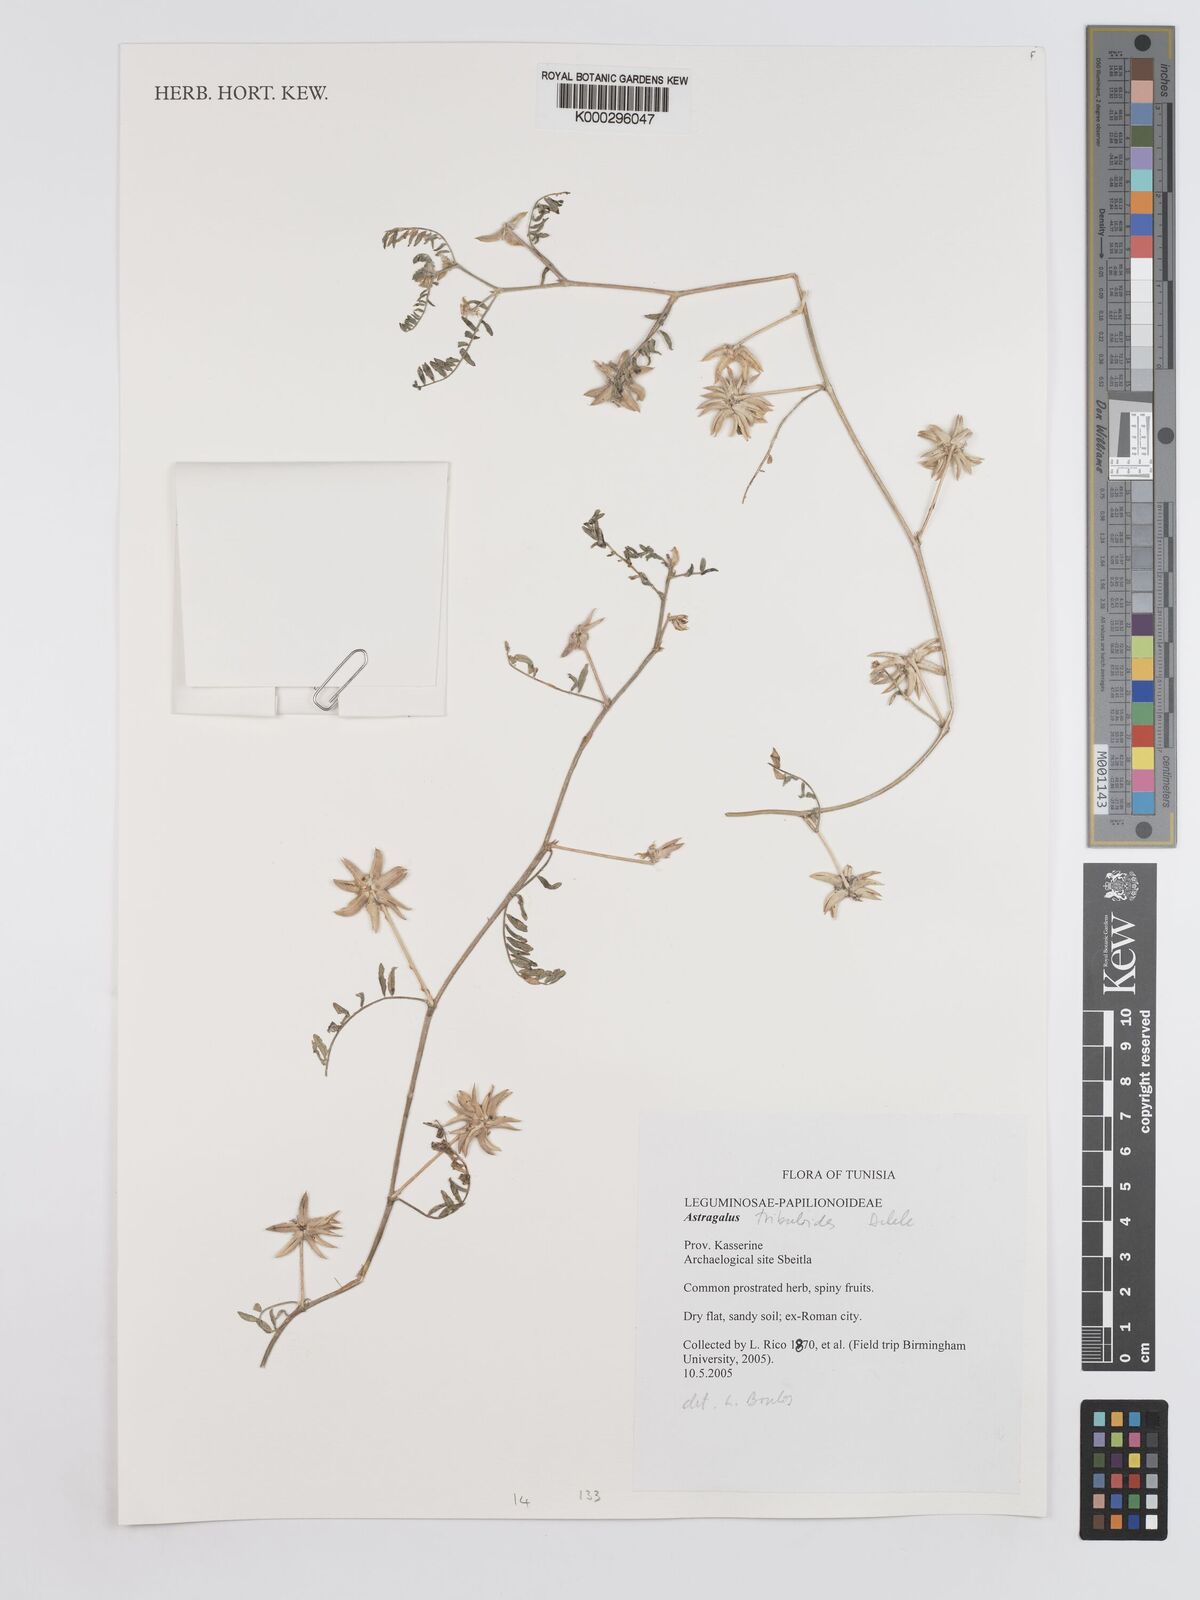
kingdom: Plantae
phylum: Tracheophyta
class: Magnoliopsida
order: Fabales
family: Fabaceae
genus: Astragalus
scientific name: Astragalus tribuloides
